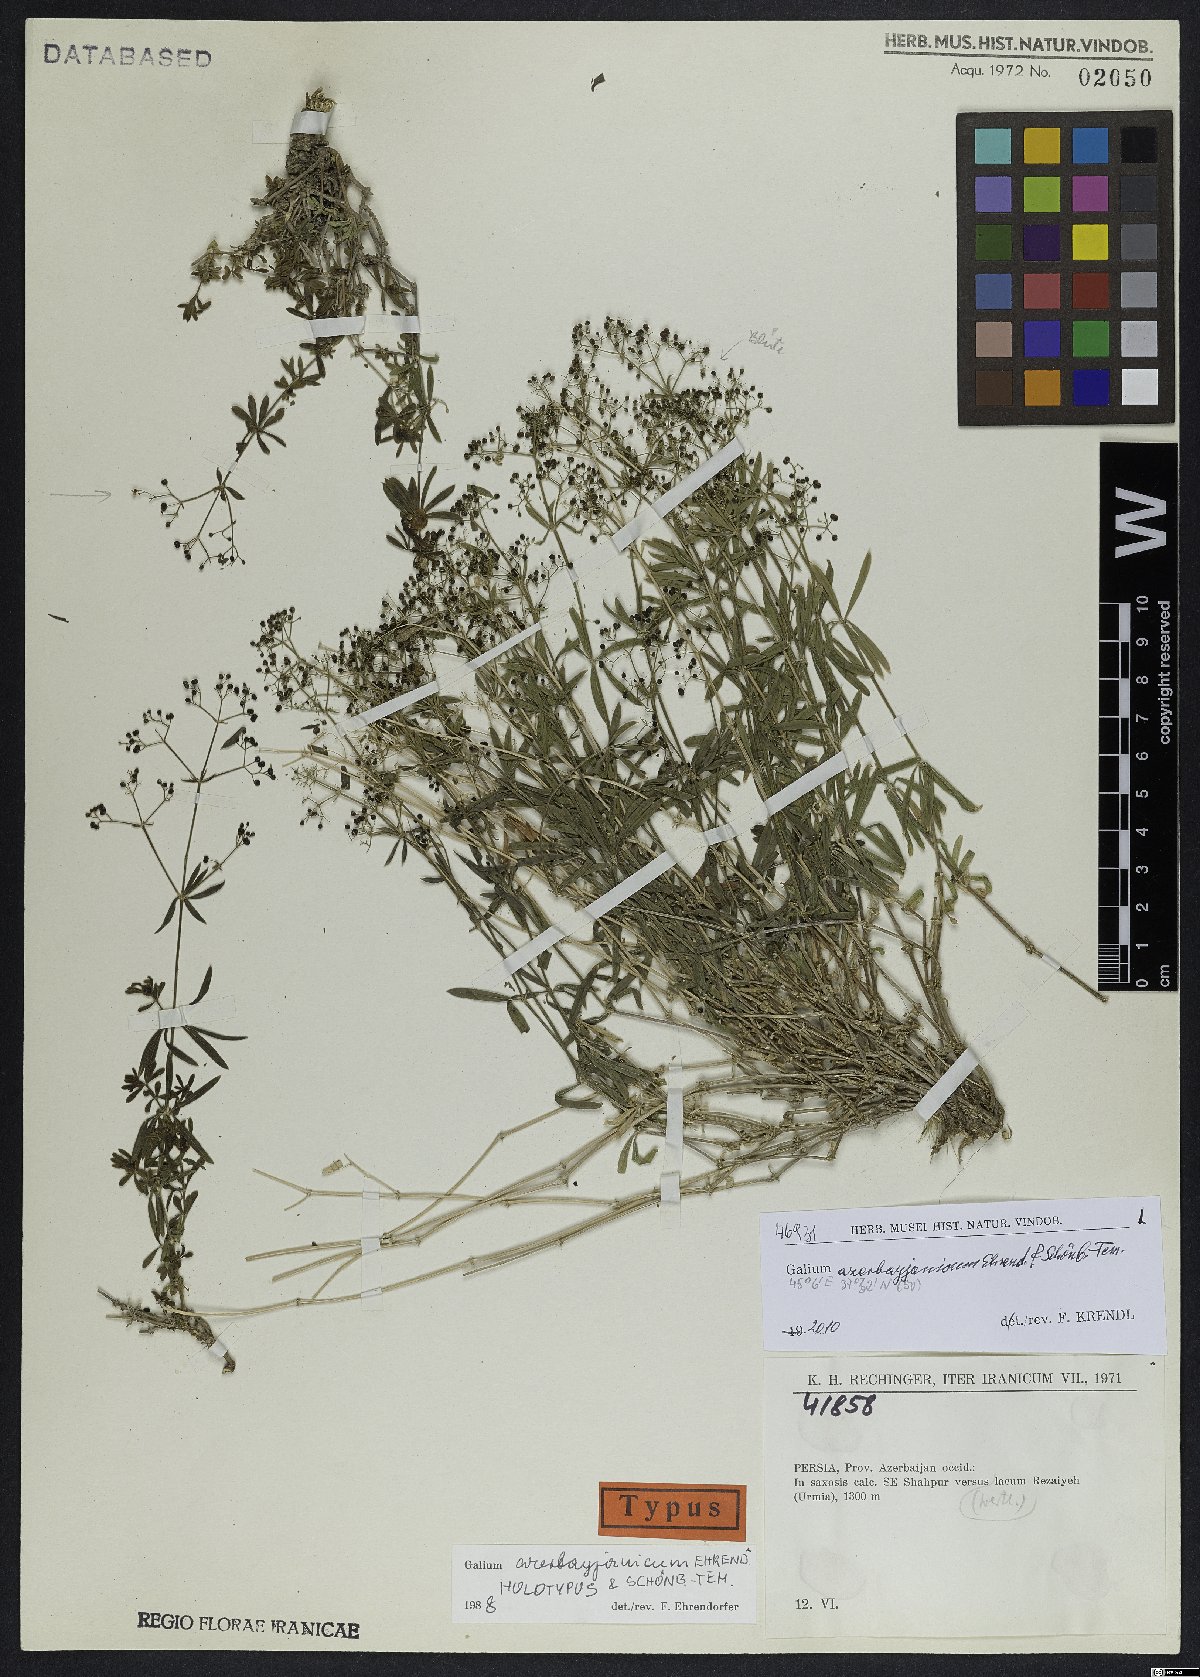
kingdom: Plantae
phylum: Tracheophyta
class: Magnoliopsida
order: Gentianales
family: Rubiaceae
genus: Galium
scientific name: Galium azerbayjanicum
